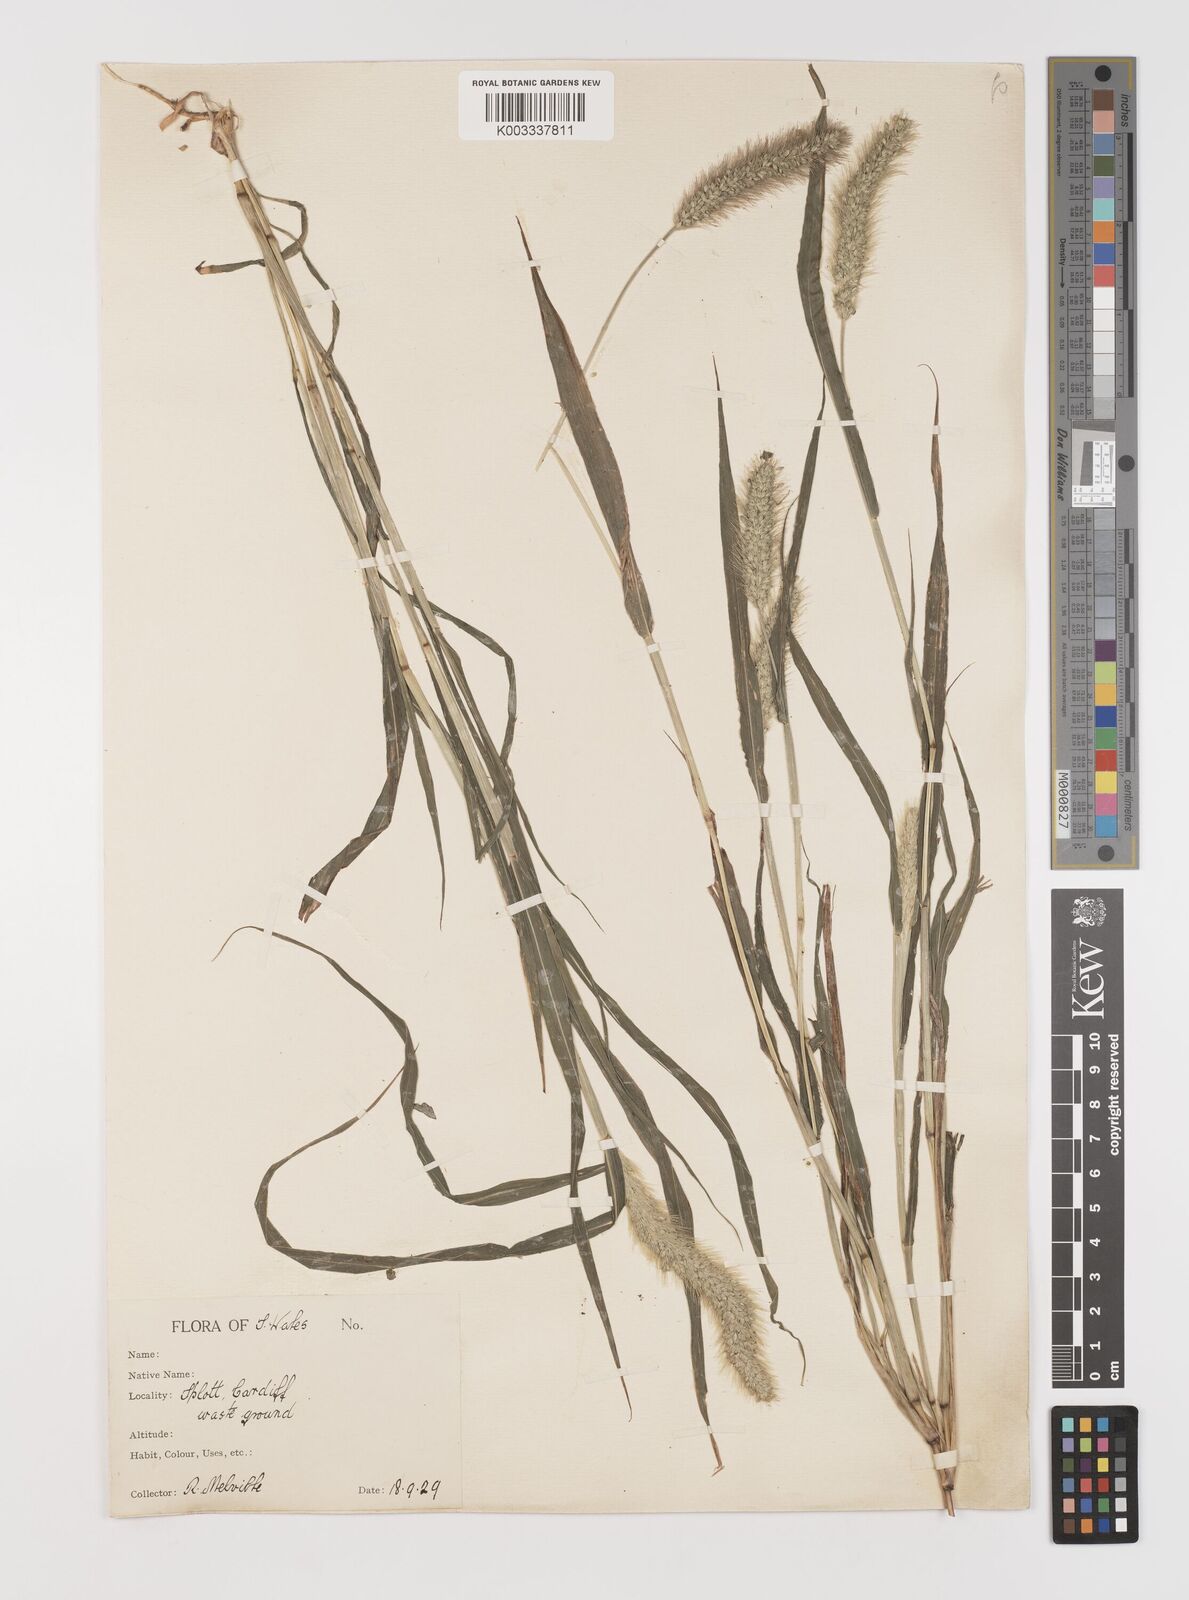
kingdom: Plantae
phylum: Tracheophyta
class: Liliopsida
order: Poales
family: Poaceae
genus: Setaria
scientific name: Setaria viridis
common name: Green bristlegrass
